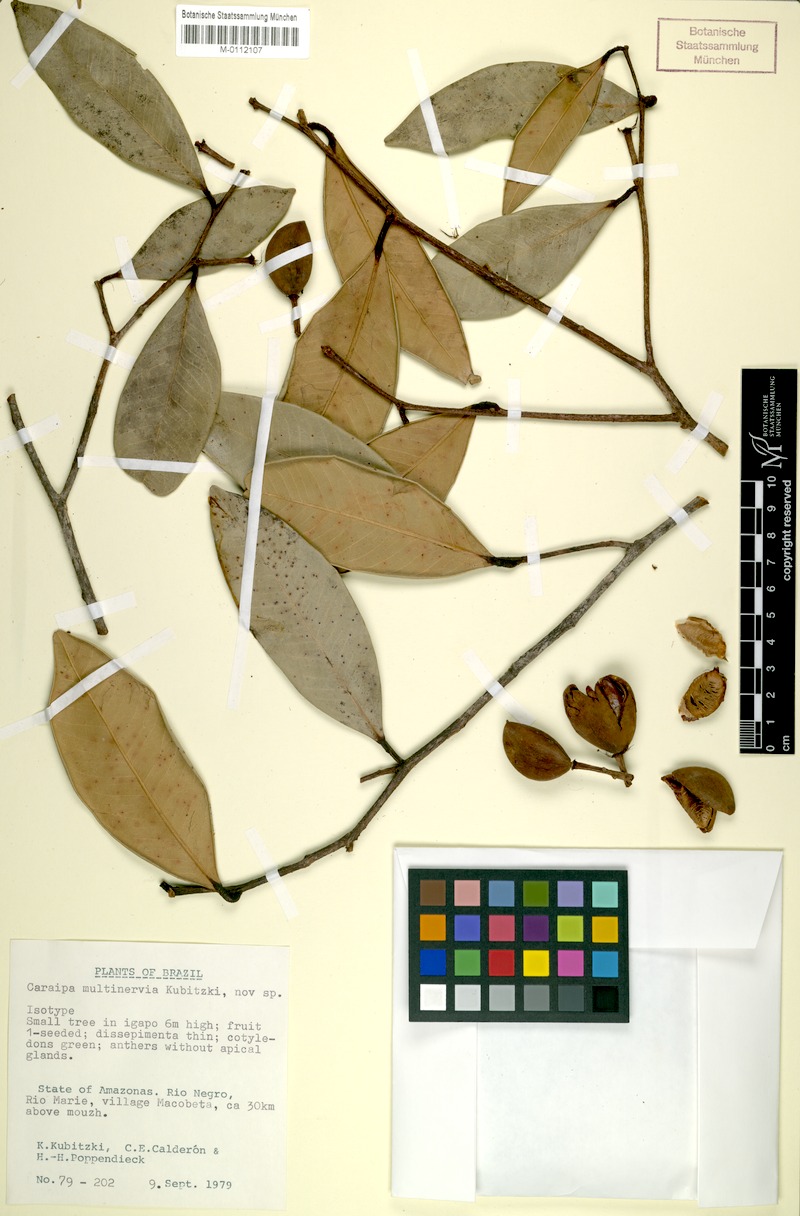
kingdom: Plantae
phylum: Tracheophyta
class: Magnoliopsida
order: Malpighiales
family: Calophyllaceae
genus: Caraipa
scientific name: Caraipa multinervia
